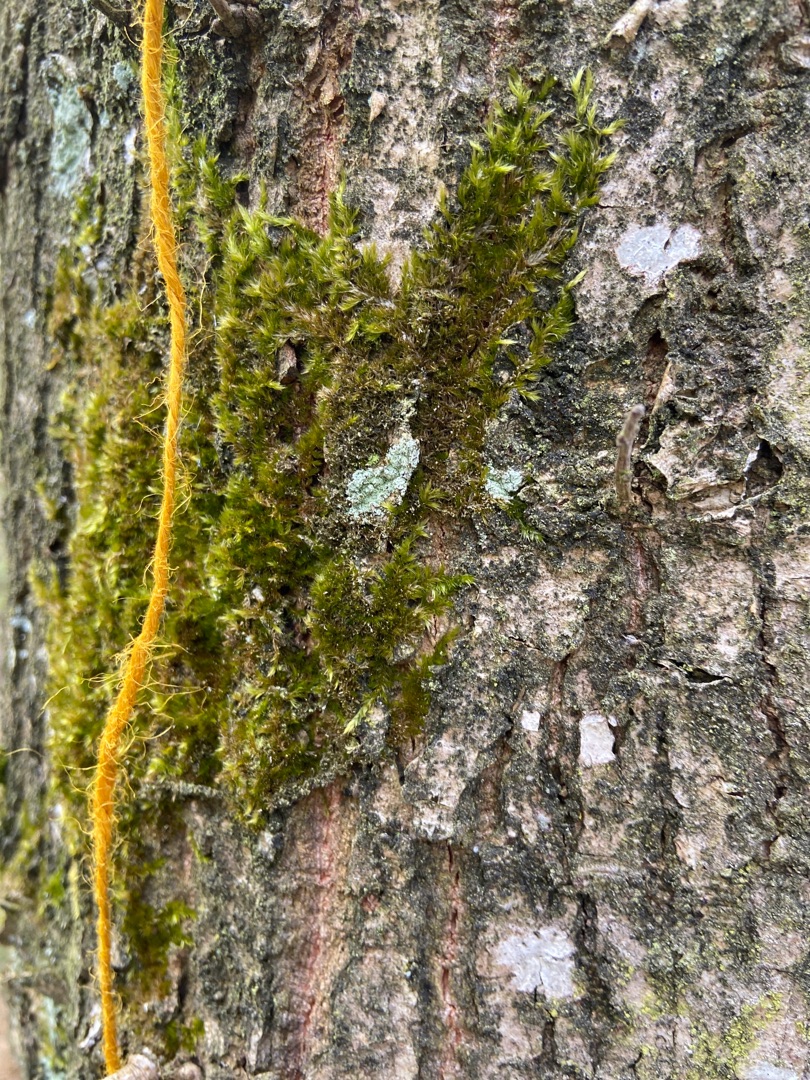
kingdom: Plantae
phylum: Bryophyta
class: Bryopsida
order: Hypnales
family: Hypnaceae
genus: Hypnum
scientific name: Hypnum
